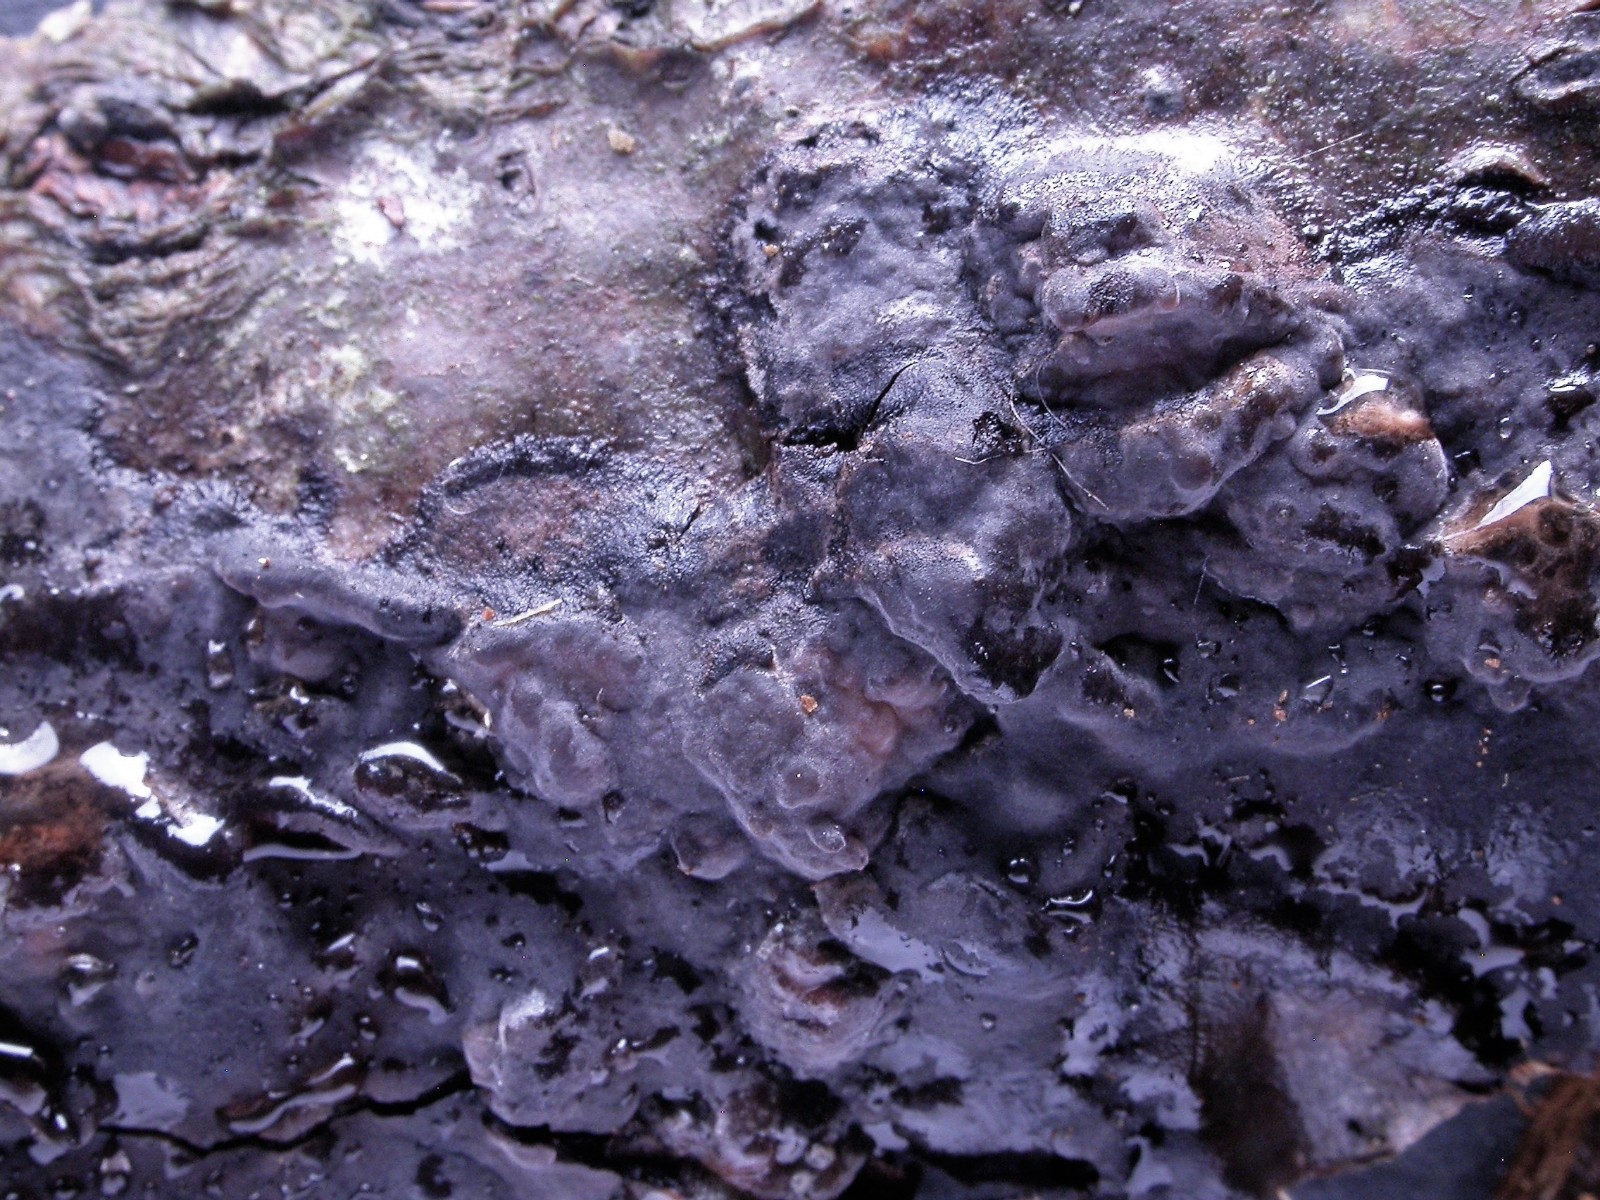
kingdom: Fungi
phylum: Basidiomycota
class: Agaricomycetes
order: Russulales
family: Peniophoraceae
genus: Peniophora
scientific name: Peniophora rufomarginata
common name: linde-voksskind
